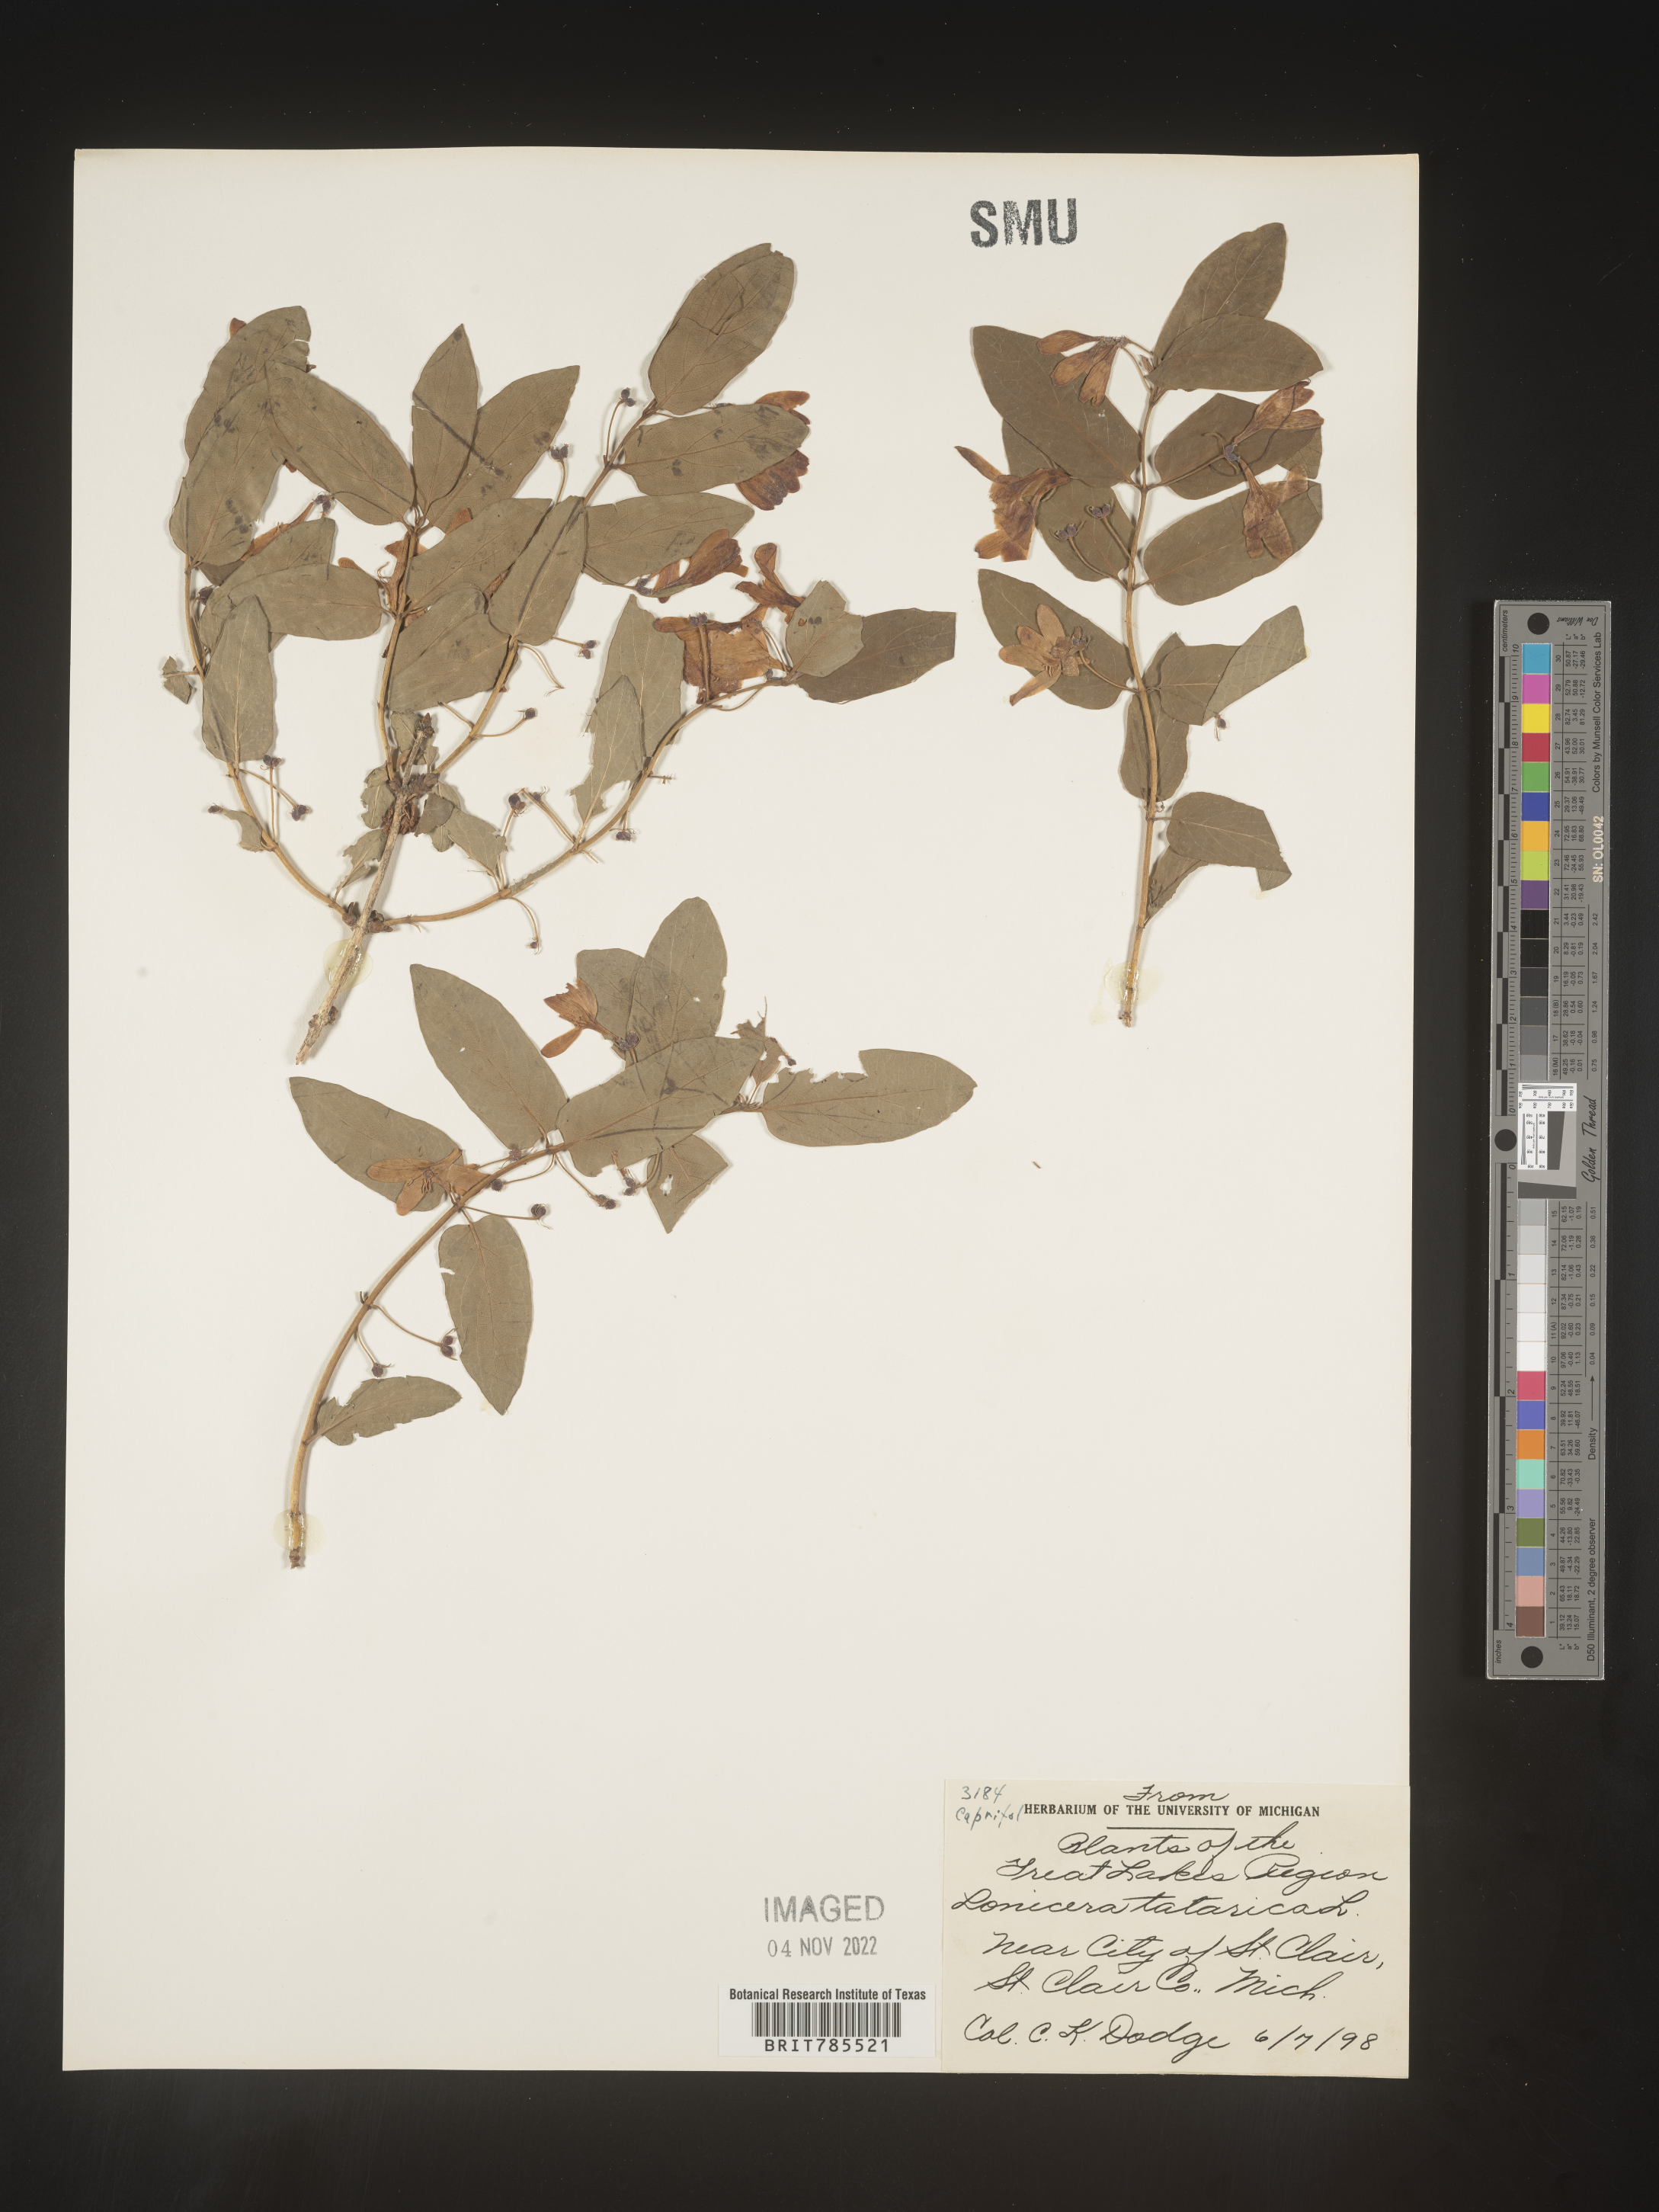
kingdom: Plantae
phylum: Tracheophyta
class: Magnoliopsida
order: Dipsacales
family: Caprifoliaceae
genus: Lonicera
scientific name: Lonicera
